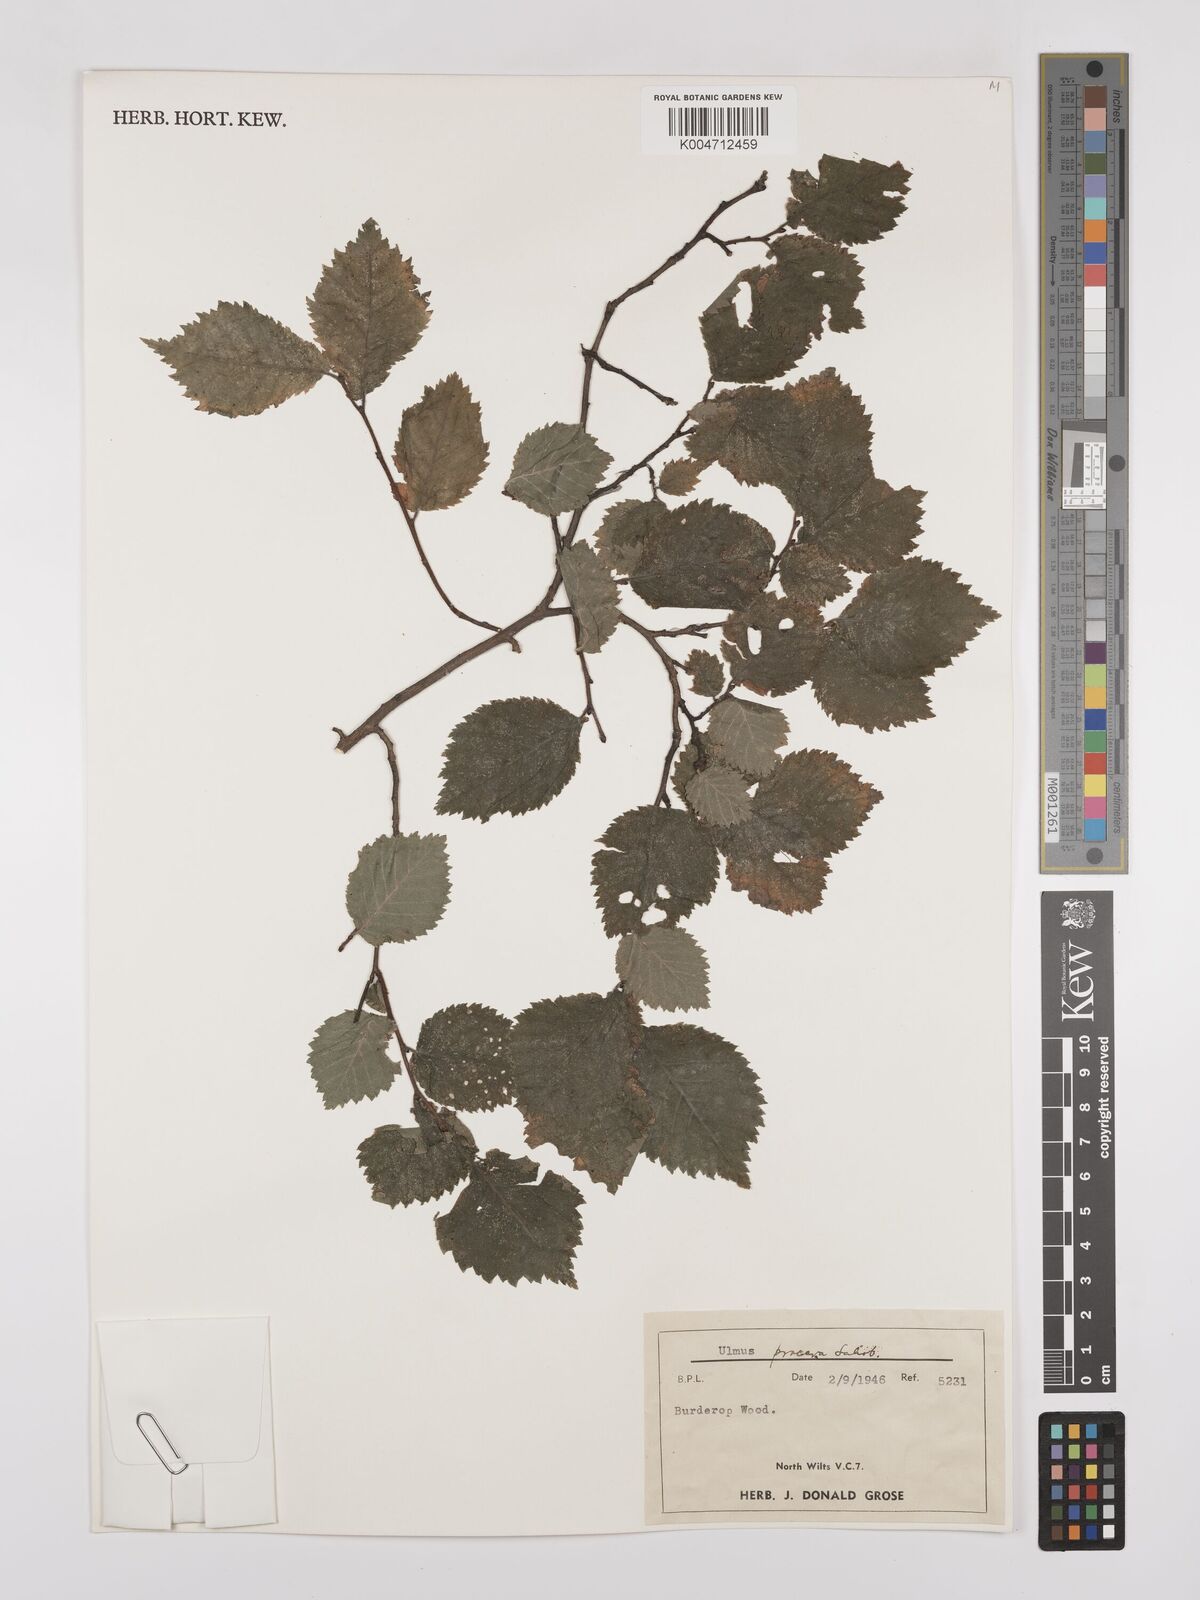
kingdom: Plantae
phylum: Tracheophyta
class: Magnoliopsida
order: Rosales
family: Ulmaceae
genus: Ulmus
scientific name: Ulmus minor
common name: Small-leaved elm
